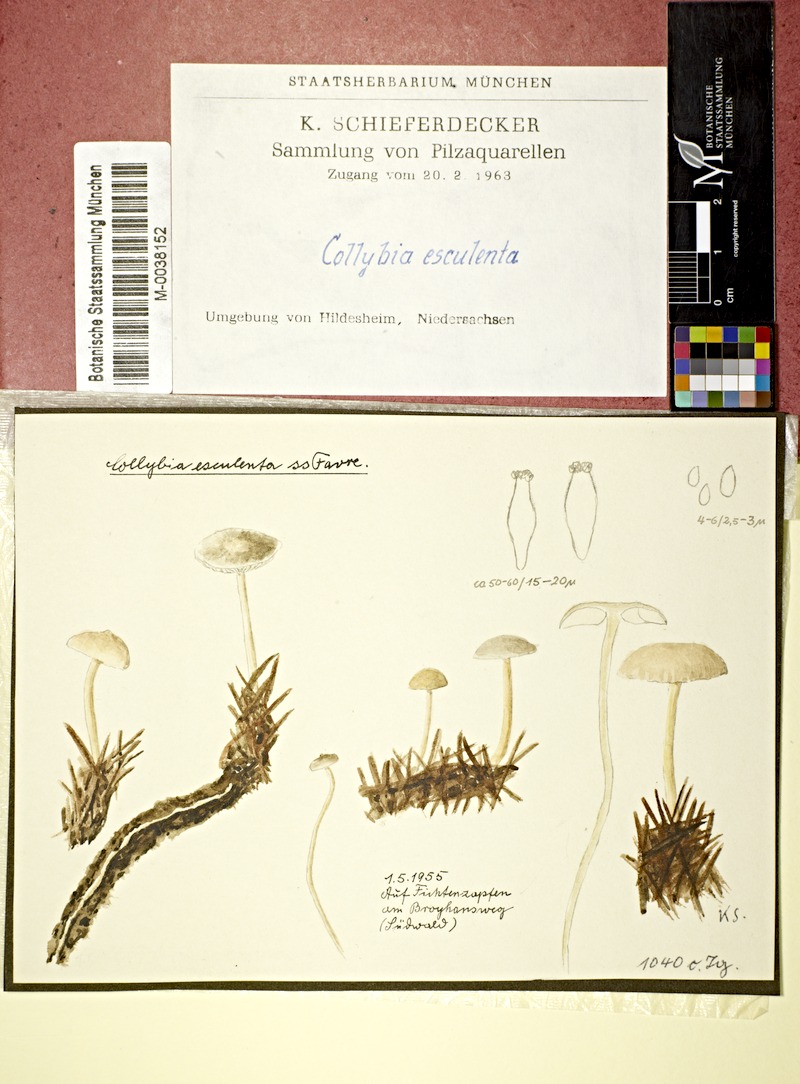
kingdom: Fungi
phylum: Basidiomycota
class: Agaricomycetes
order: Agaricales
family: Physalacriaceae
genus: Strobilurus
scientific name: Strobilurus esculentus
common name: Sprucecone cap
